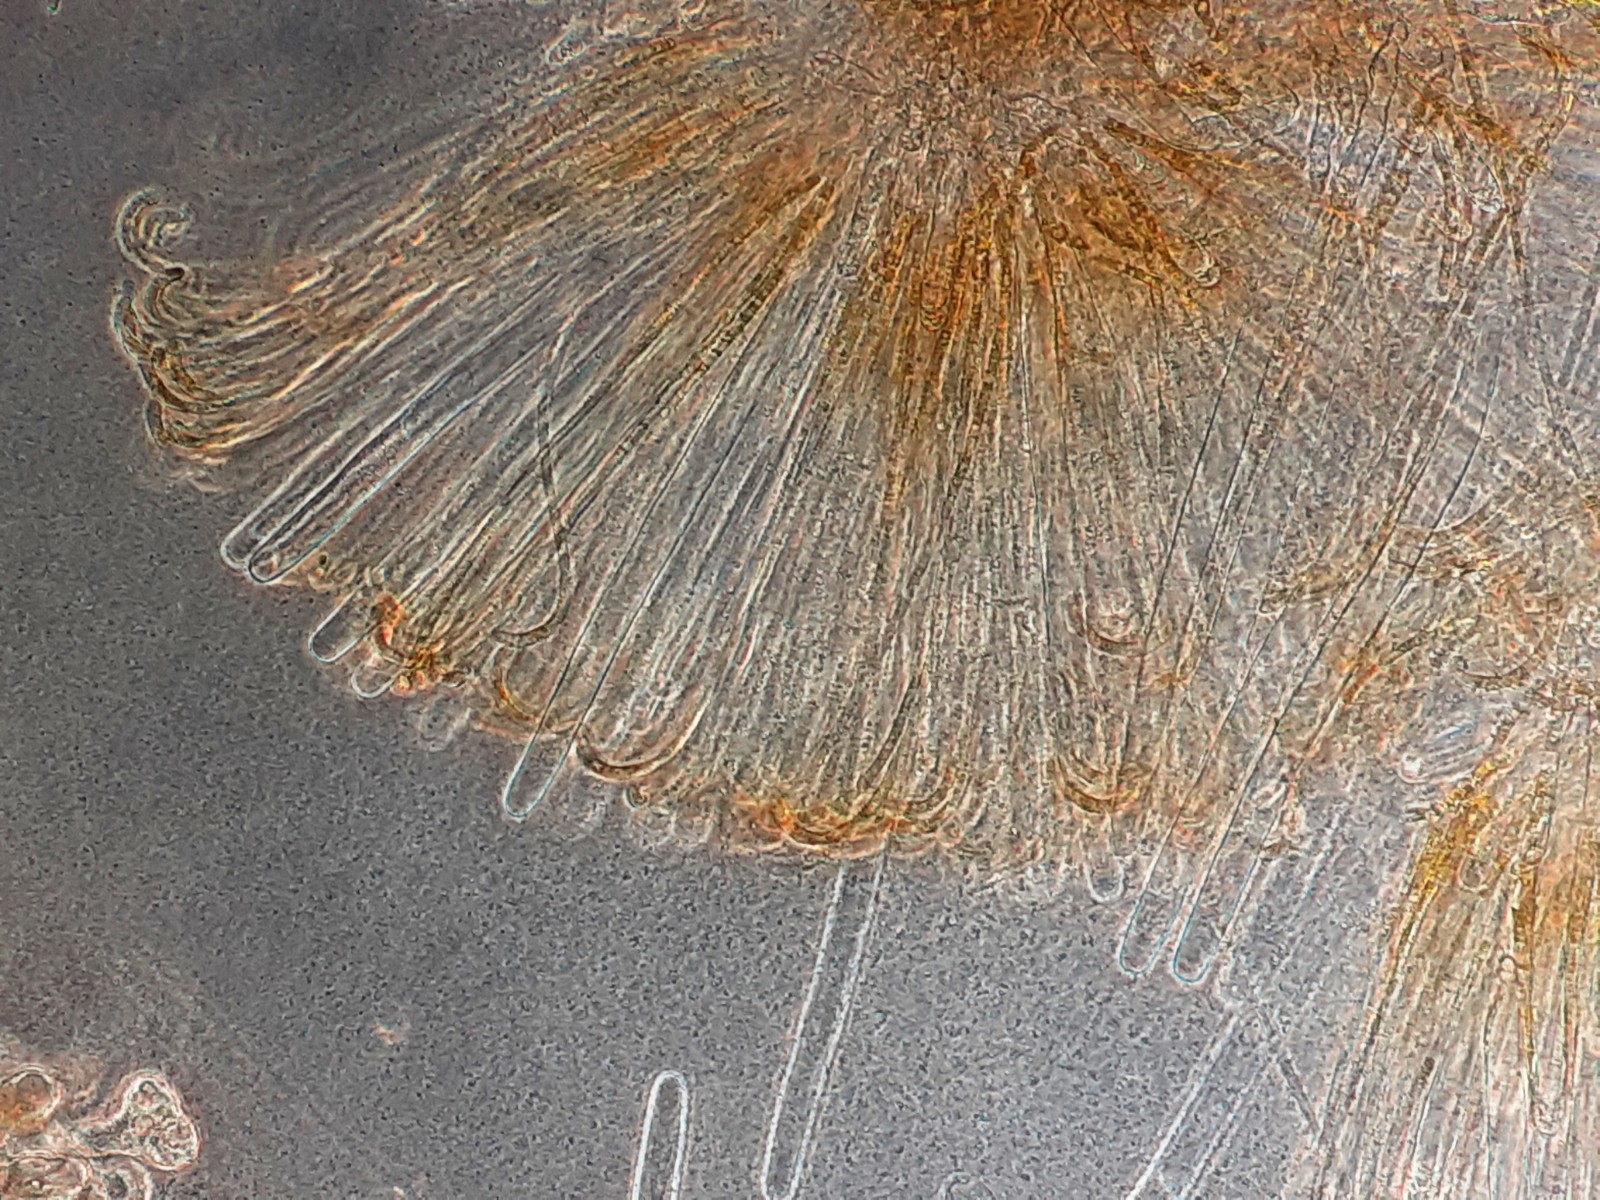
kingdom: Fungi
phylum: Ascomycota
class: Pezizomycetes
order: Pezizales
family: Pyronemataceae
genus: Byssonectria
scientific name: Byssonectria terrestris
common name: hjortebæger
